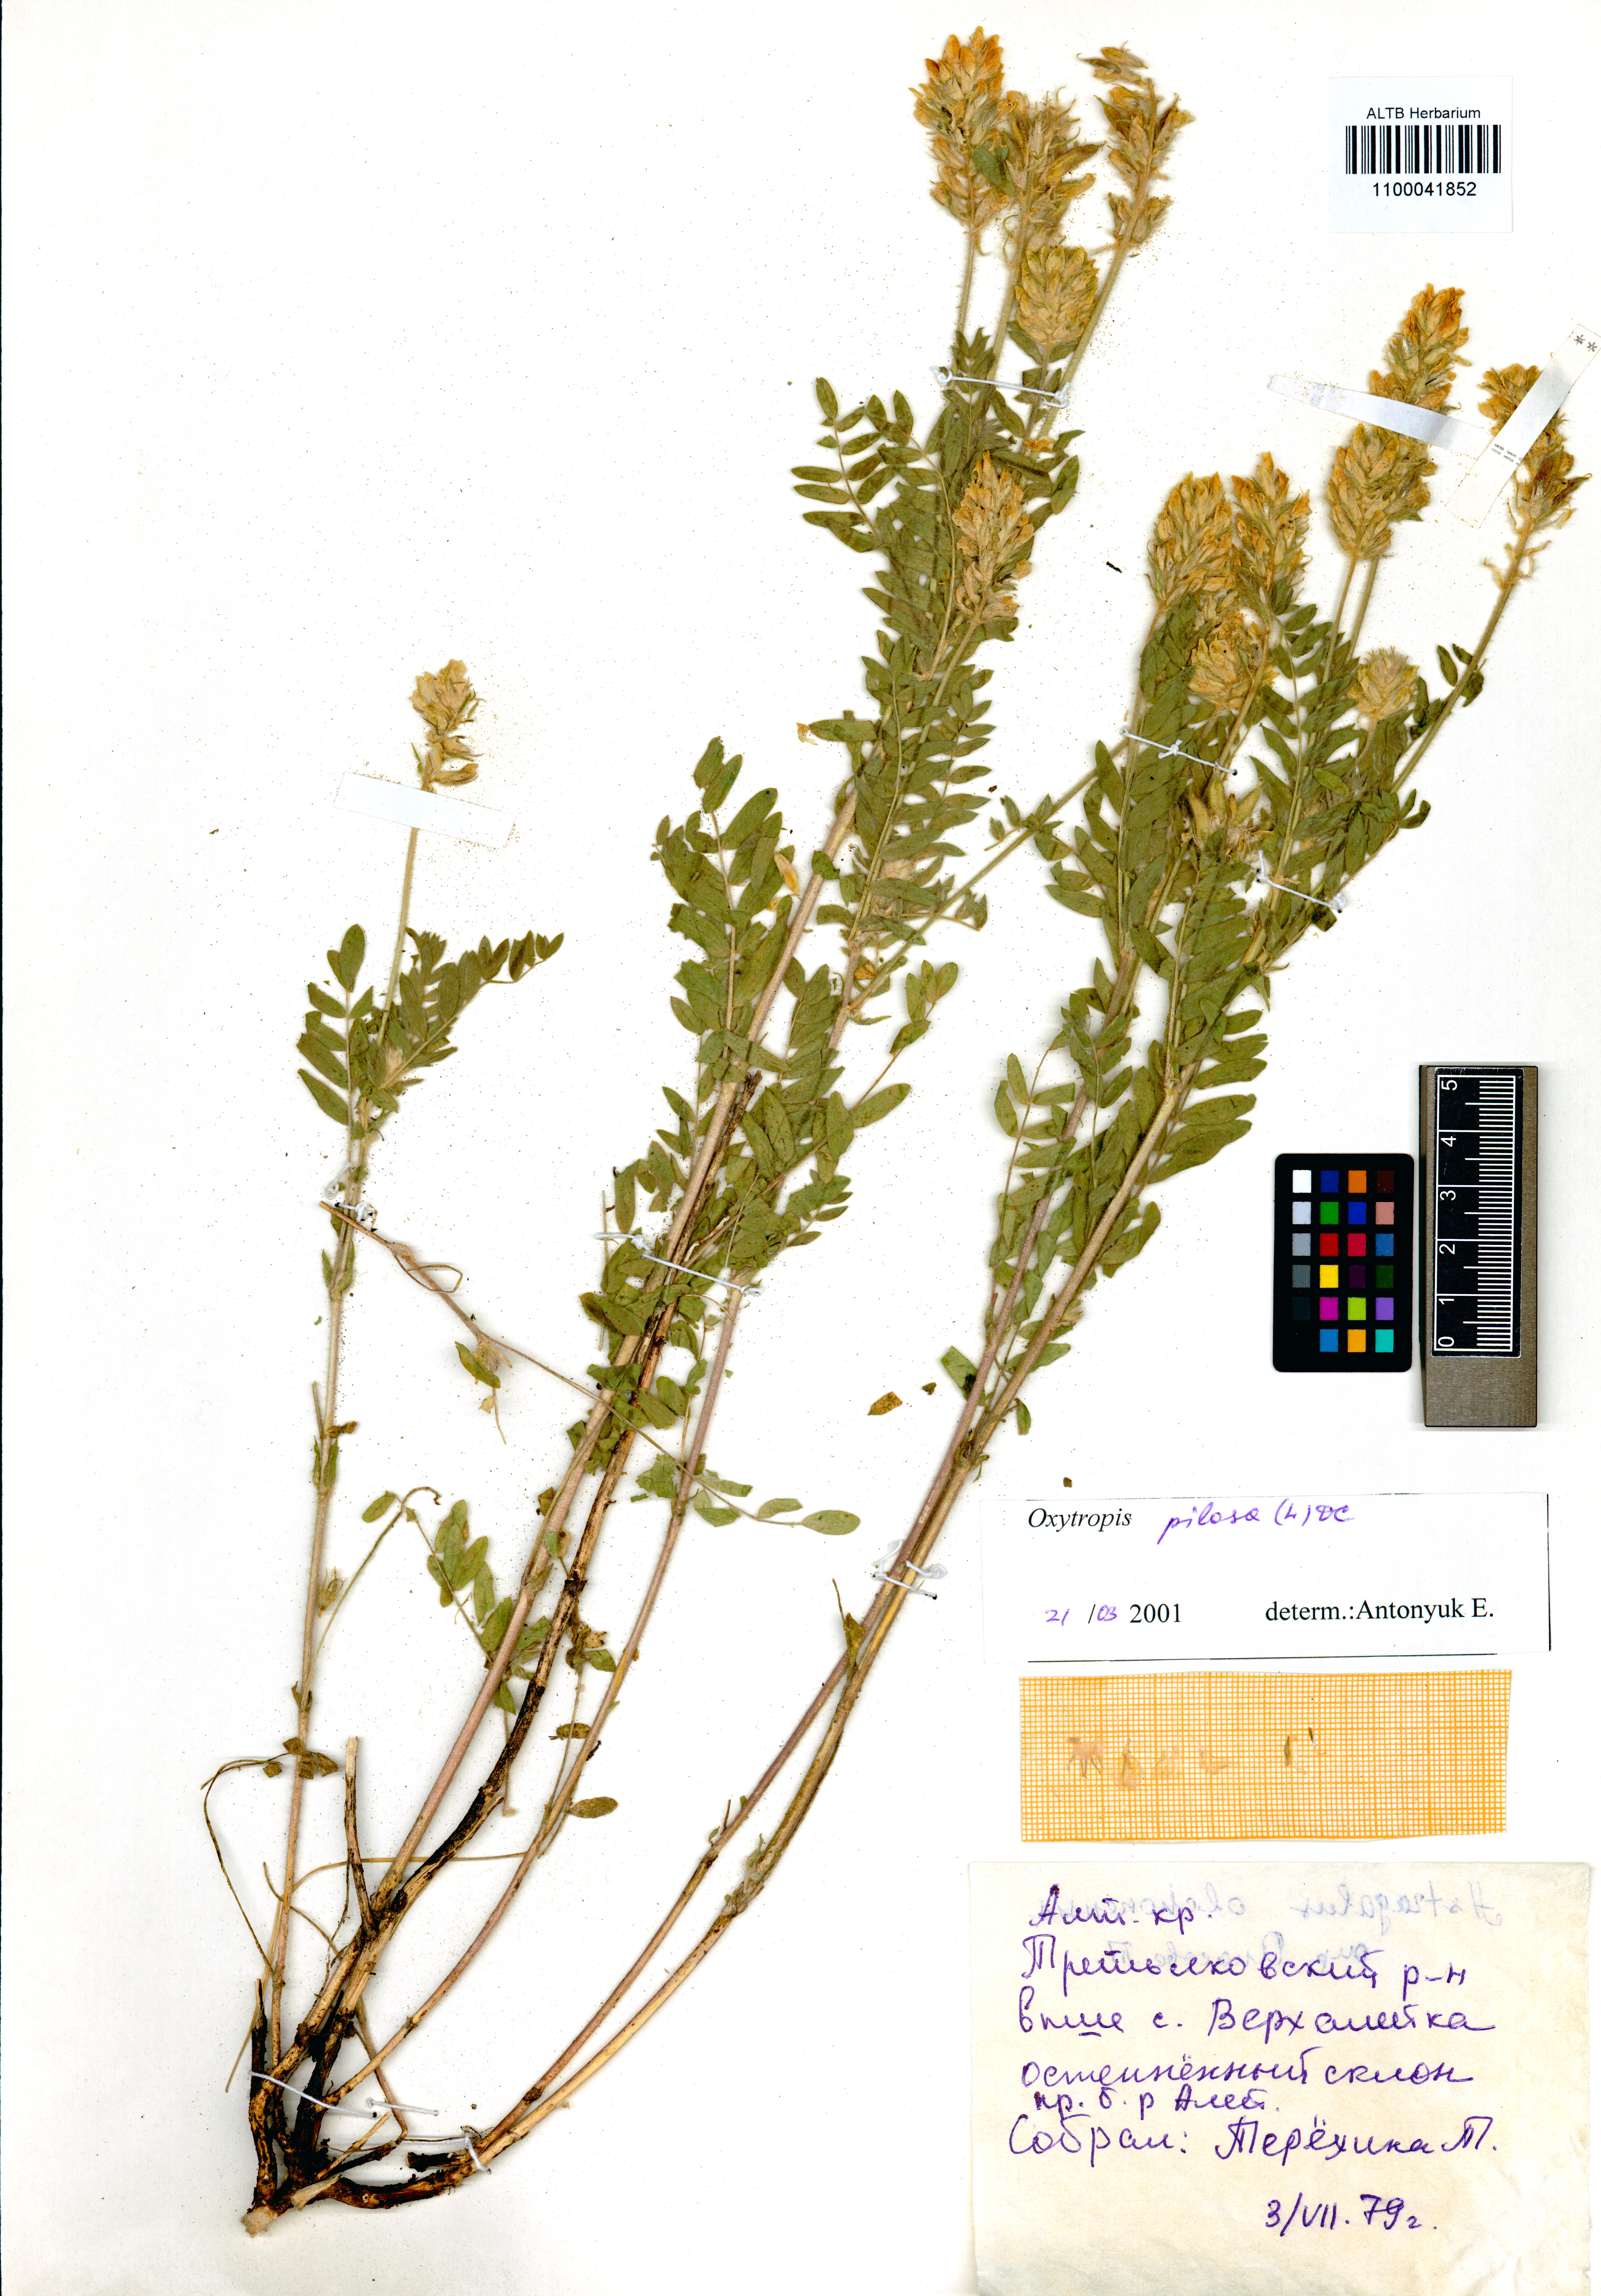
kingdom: Plantae
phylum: Tracheophyta
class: Magnoliopsida
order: Fabales
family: Fabaceae
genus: Oxytropis
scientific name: Oxytropis pilosa
